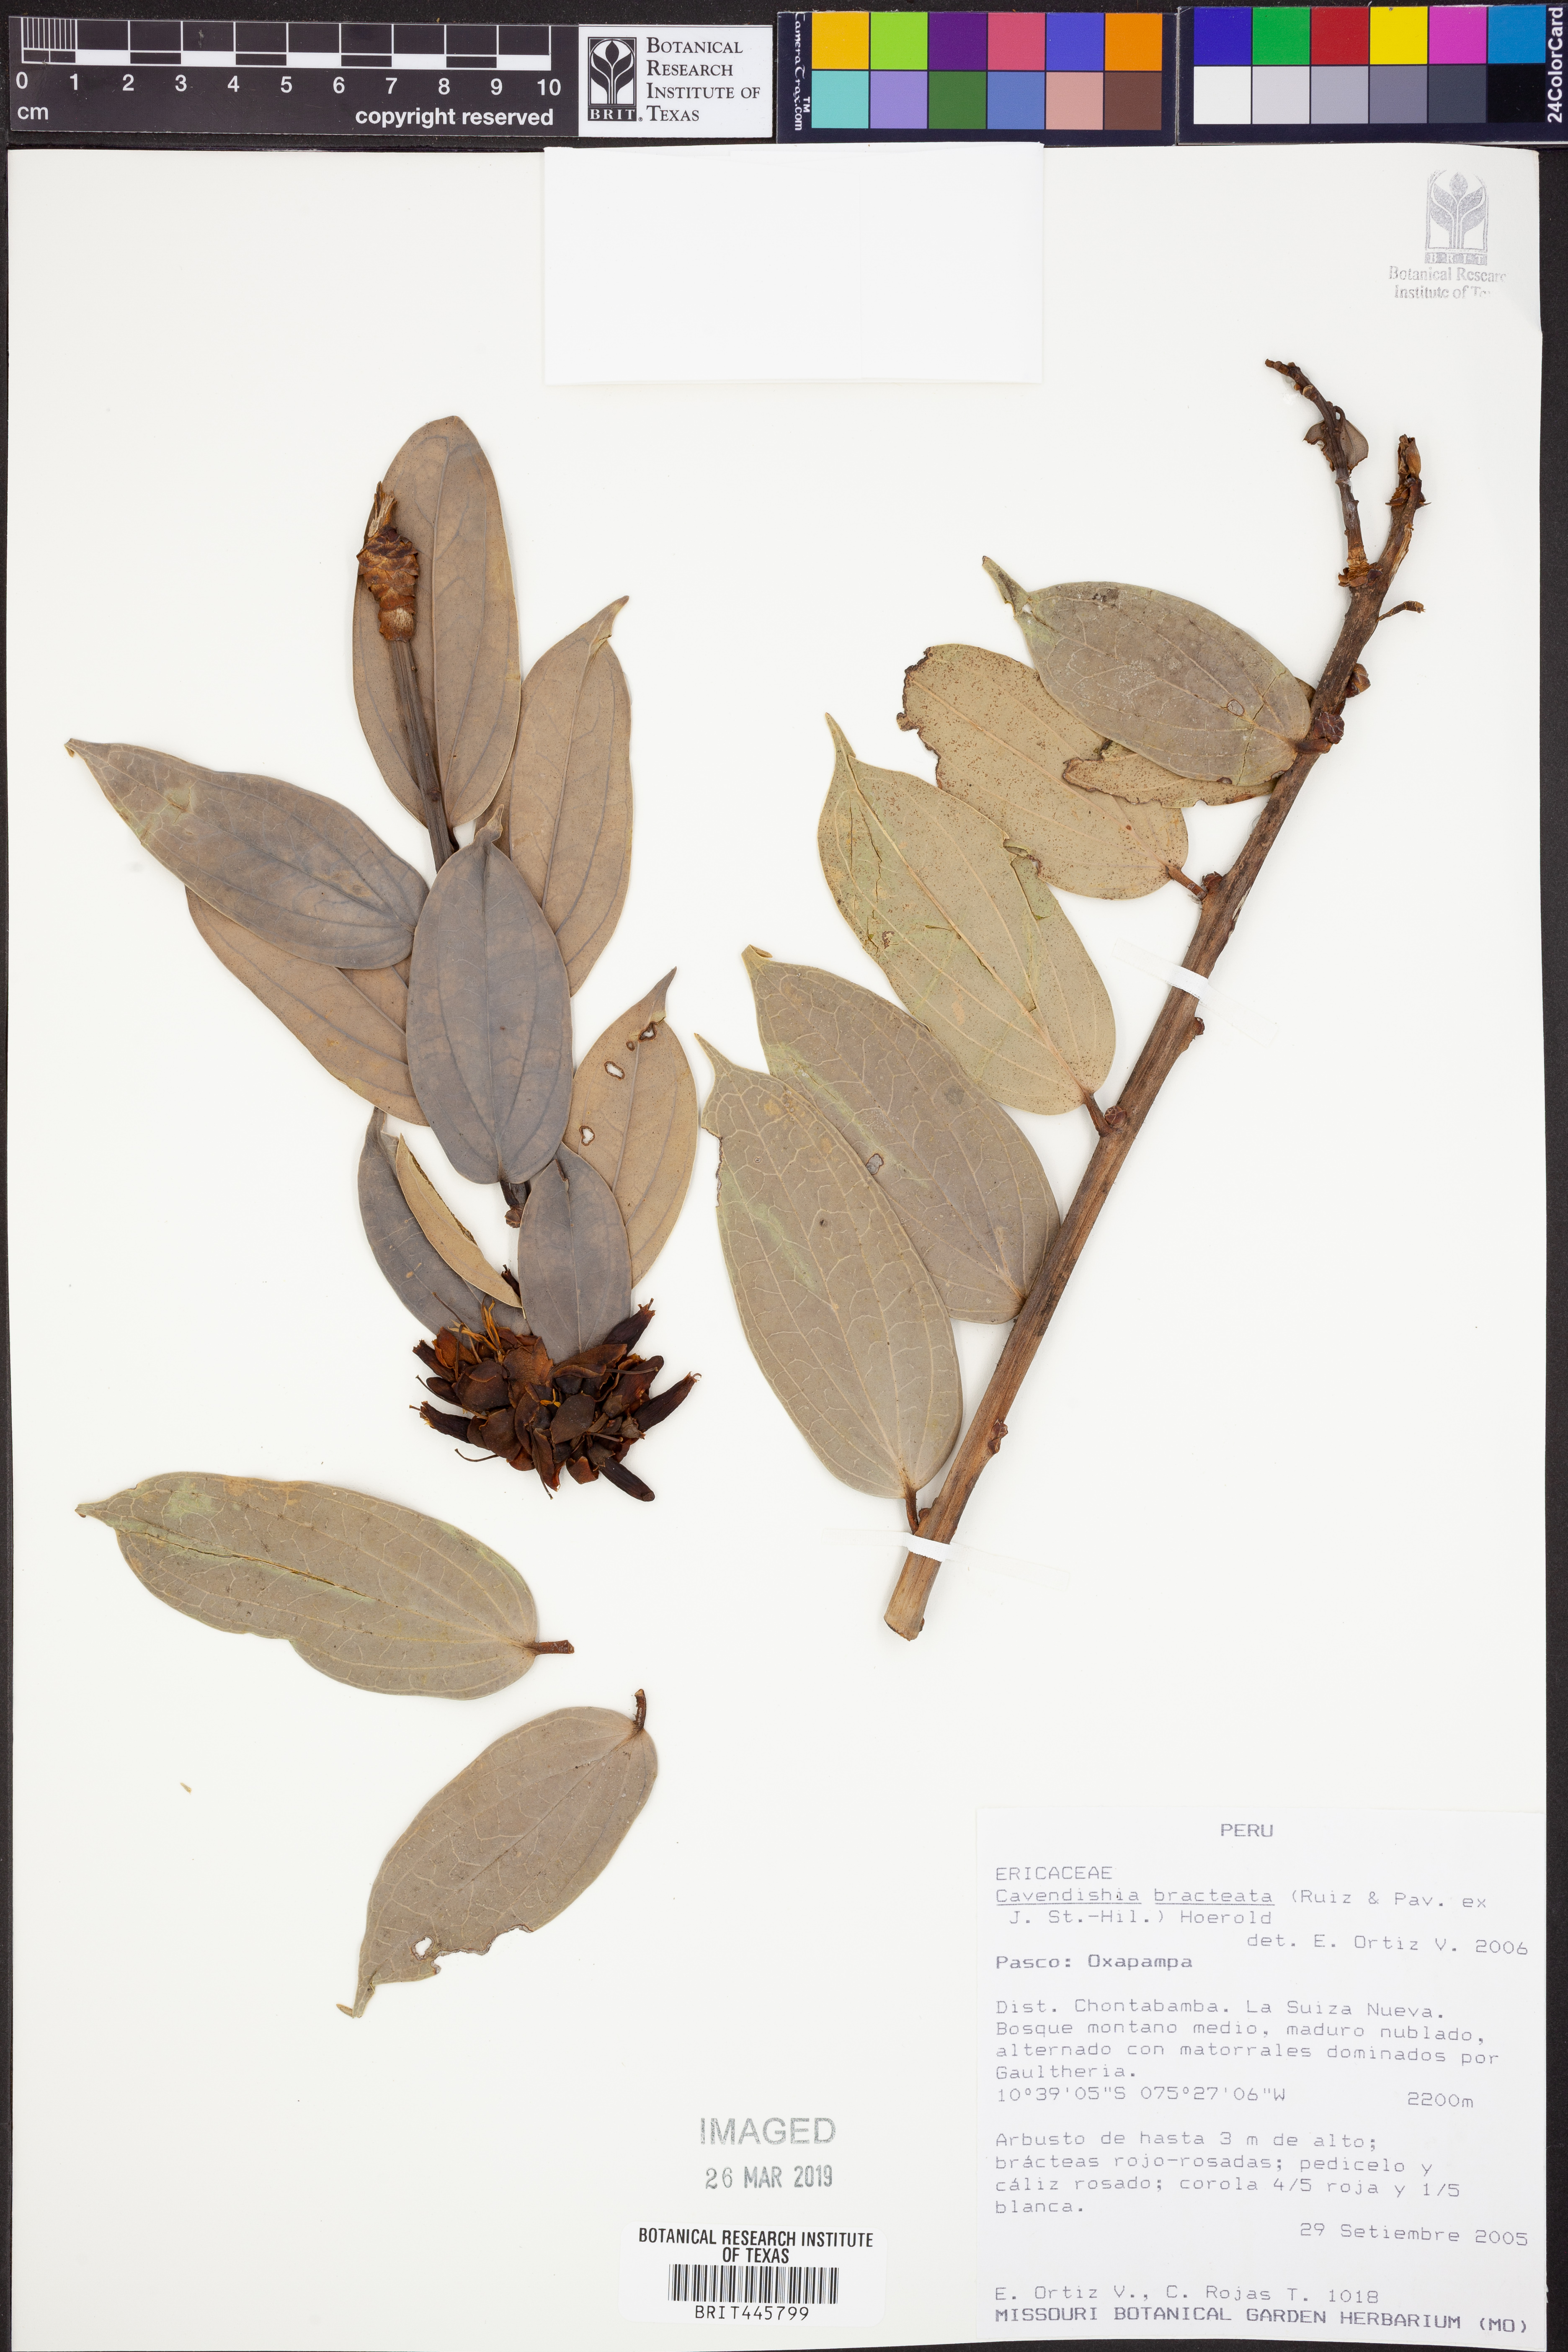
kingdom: Plantae
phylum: Tracheophyta
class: Magnoliopsida
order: Ericales
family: Ericaceae
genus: Cavendishia
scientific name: Cavendishia bracteata
